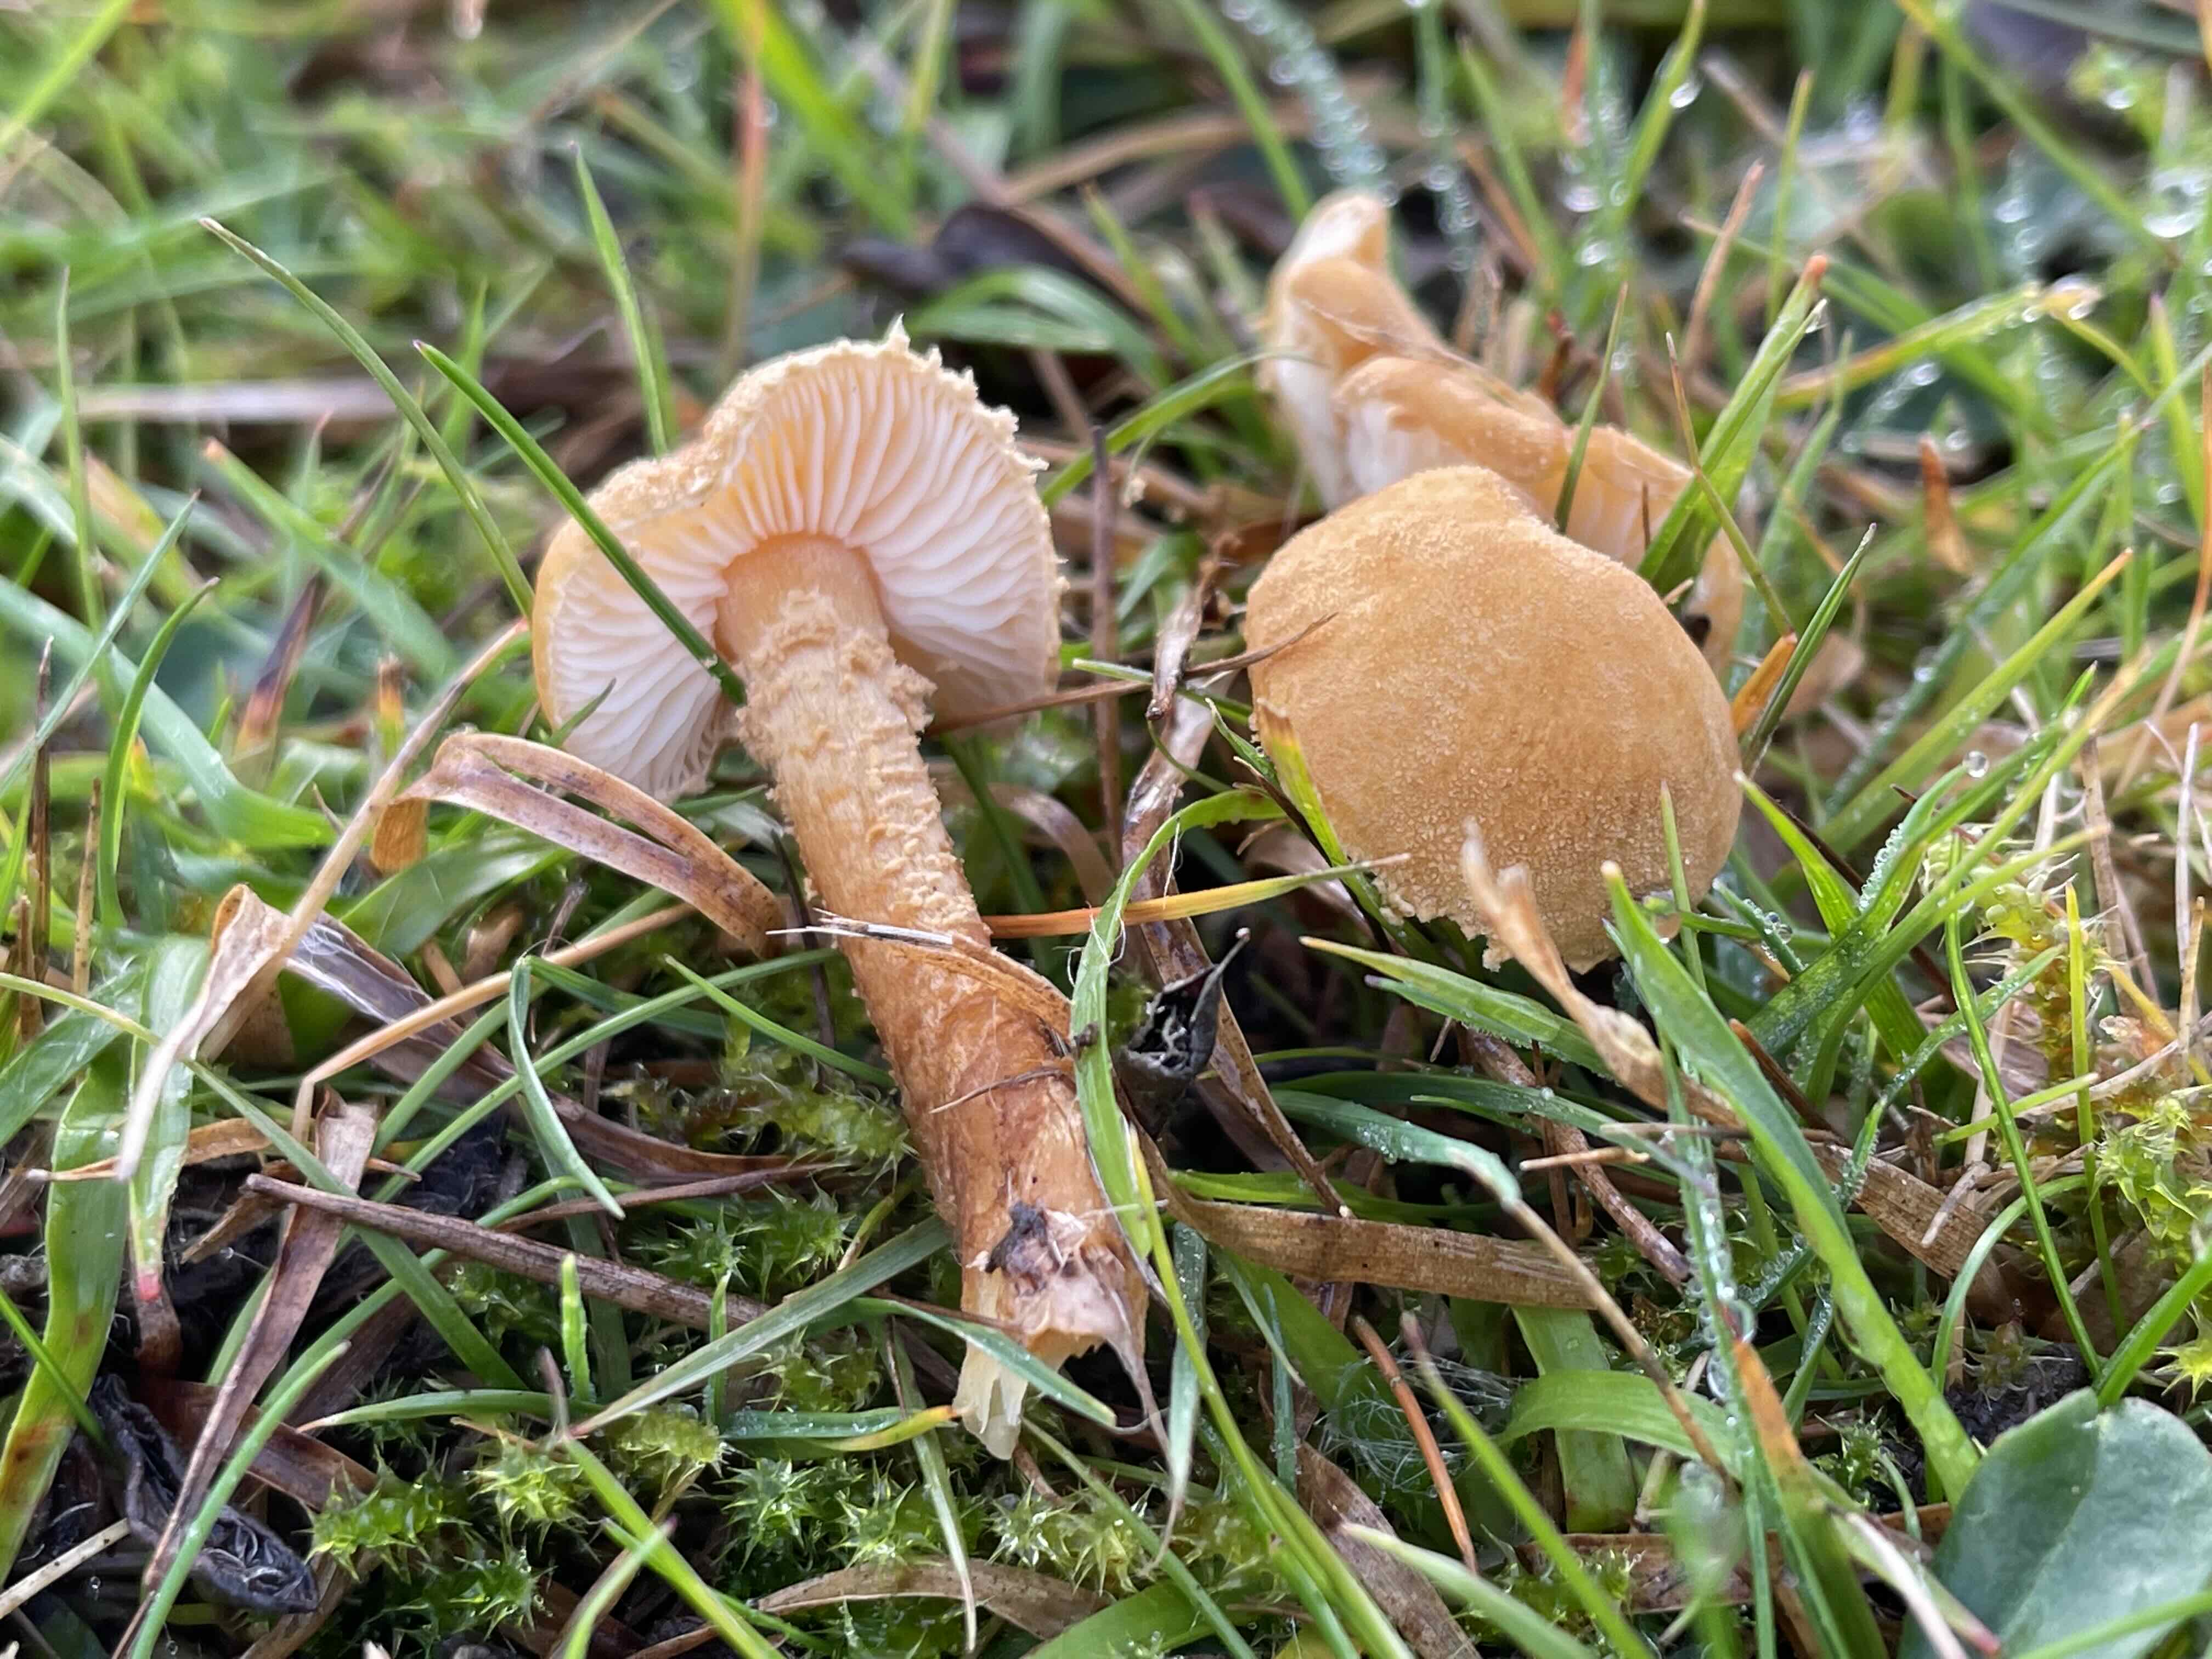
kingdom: Fungi
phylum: Basidiomycota
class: Agaricomycetes
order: Agaricales
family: Tricholomataceae
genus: Cystoderma
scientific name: Cystoderma amianthinum
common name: okkergul grynhat
